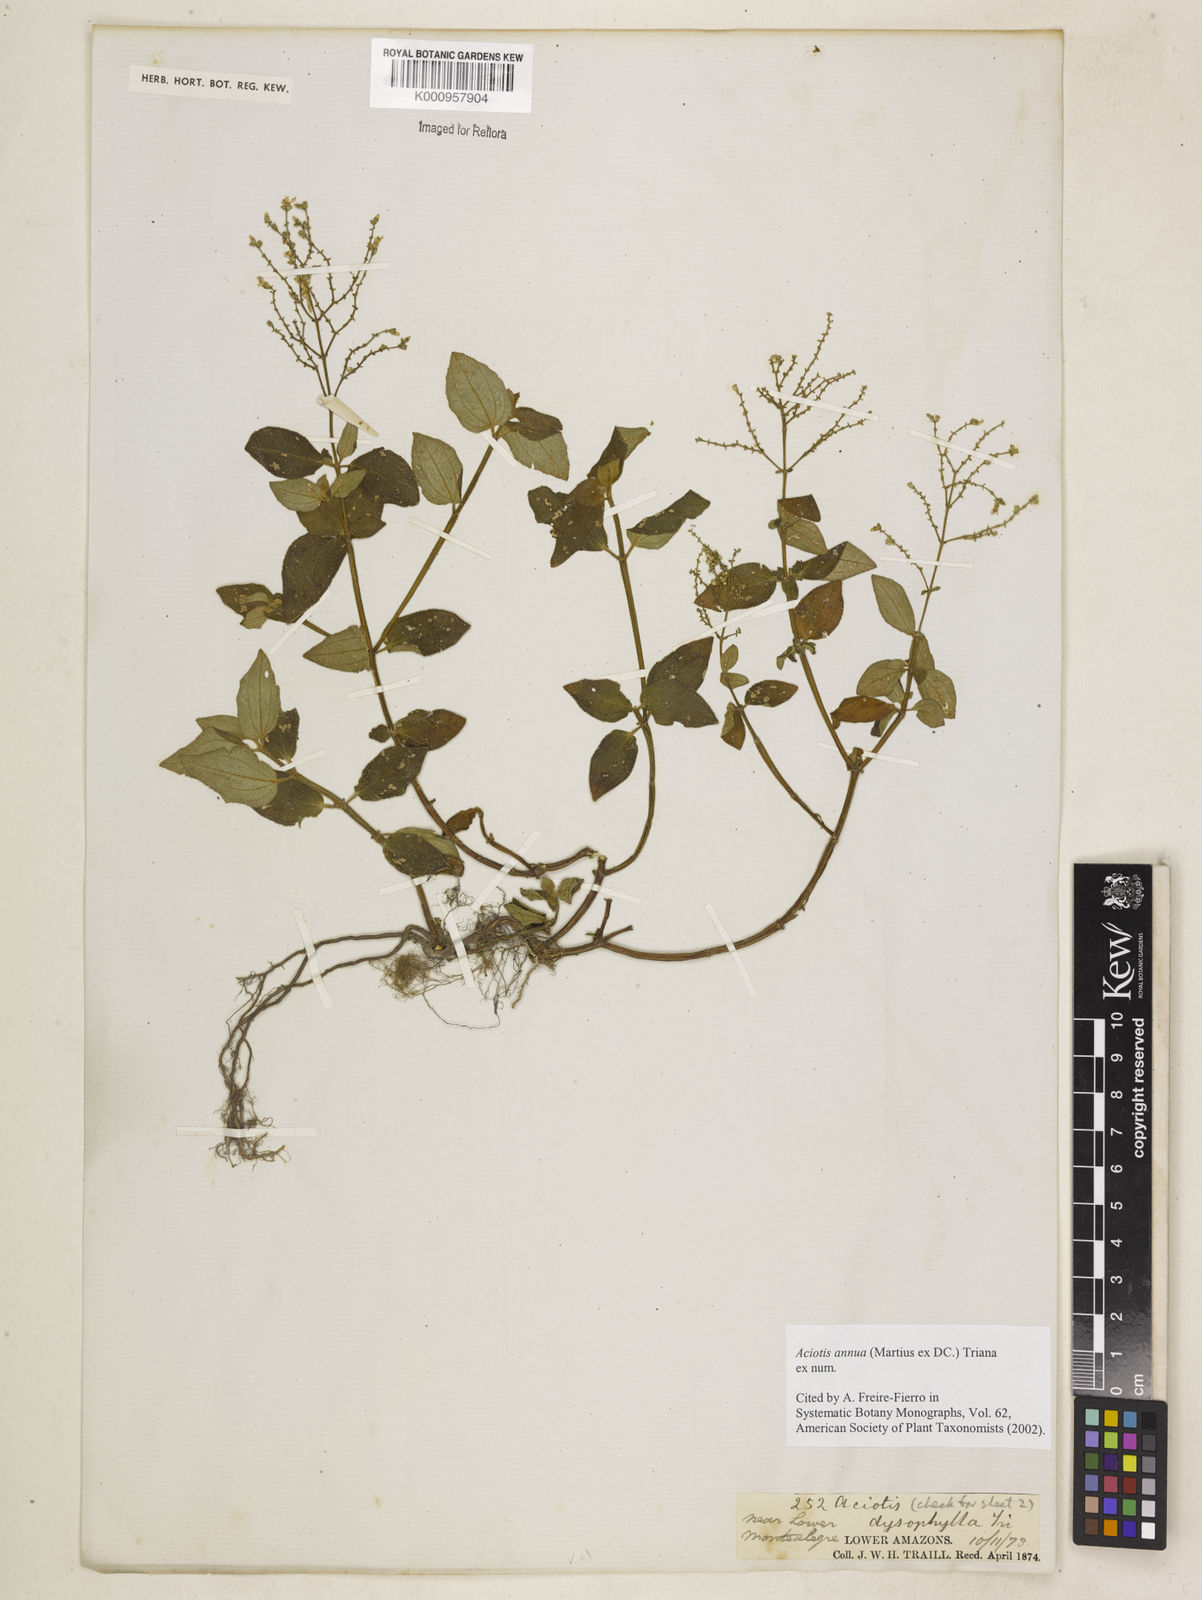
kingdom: Plantae
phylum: Tracheophyta
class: Magnoliopsida
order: Myrtales
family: Melastomataceae
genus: Aciotis
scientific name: Aciotis annua
